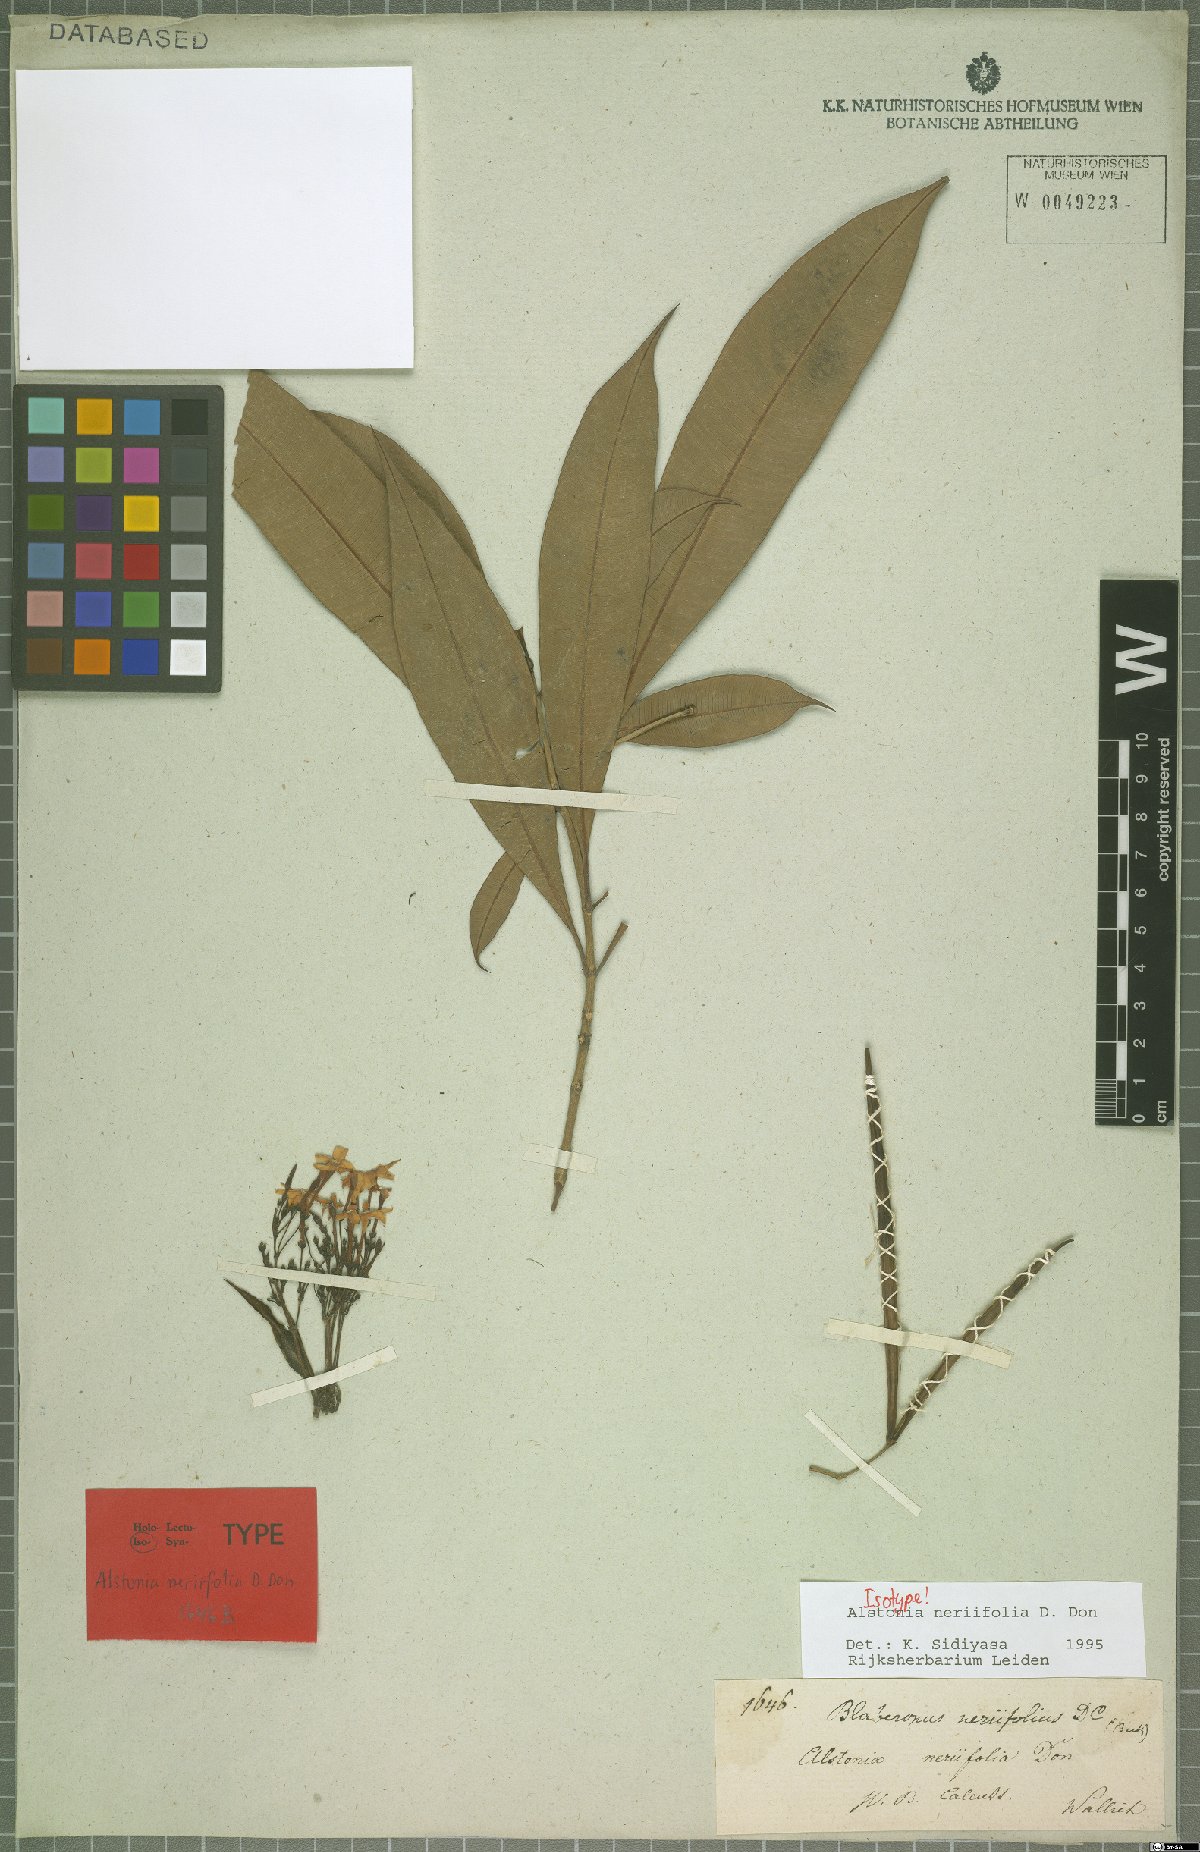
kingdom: Plantae
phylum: Tracheophyta
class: Magnoliopsida
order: Gentianales
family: Apocynaceae
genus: Alstonia
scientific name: Alstonia neriifolia
